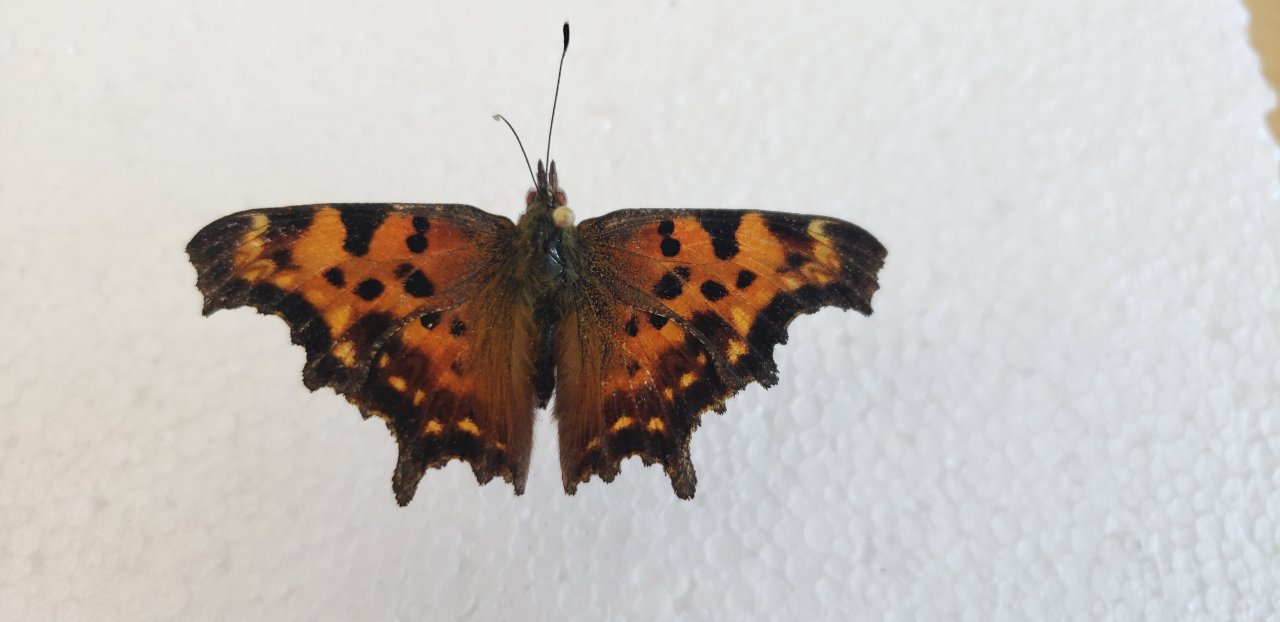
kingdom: Animalia
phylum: Arthropoda
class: Insecta
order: Lepidoptera
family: Nymphalidae
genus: Polygonia
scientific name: Polygonia faunus
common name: Green Comma
